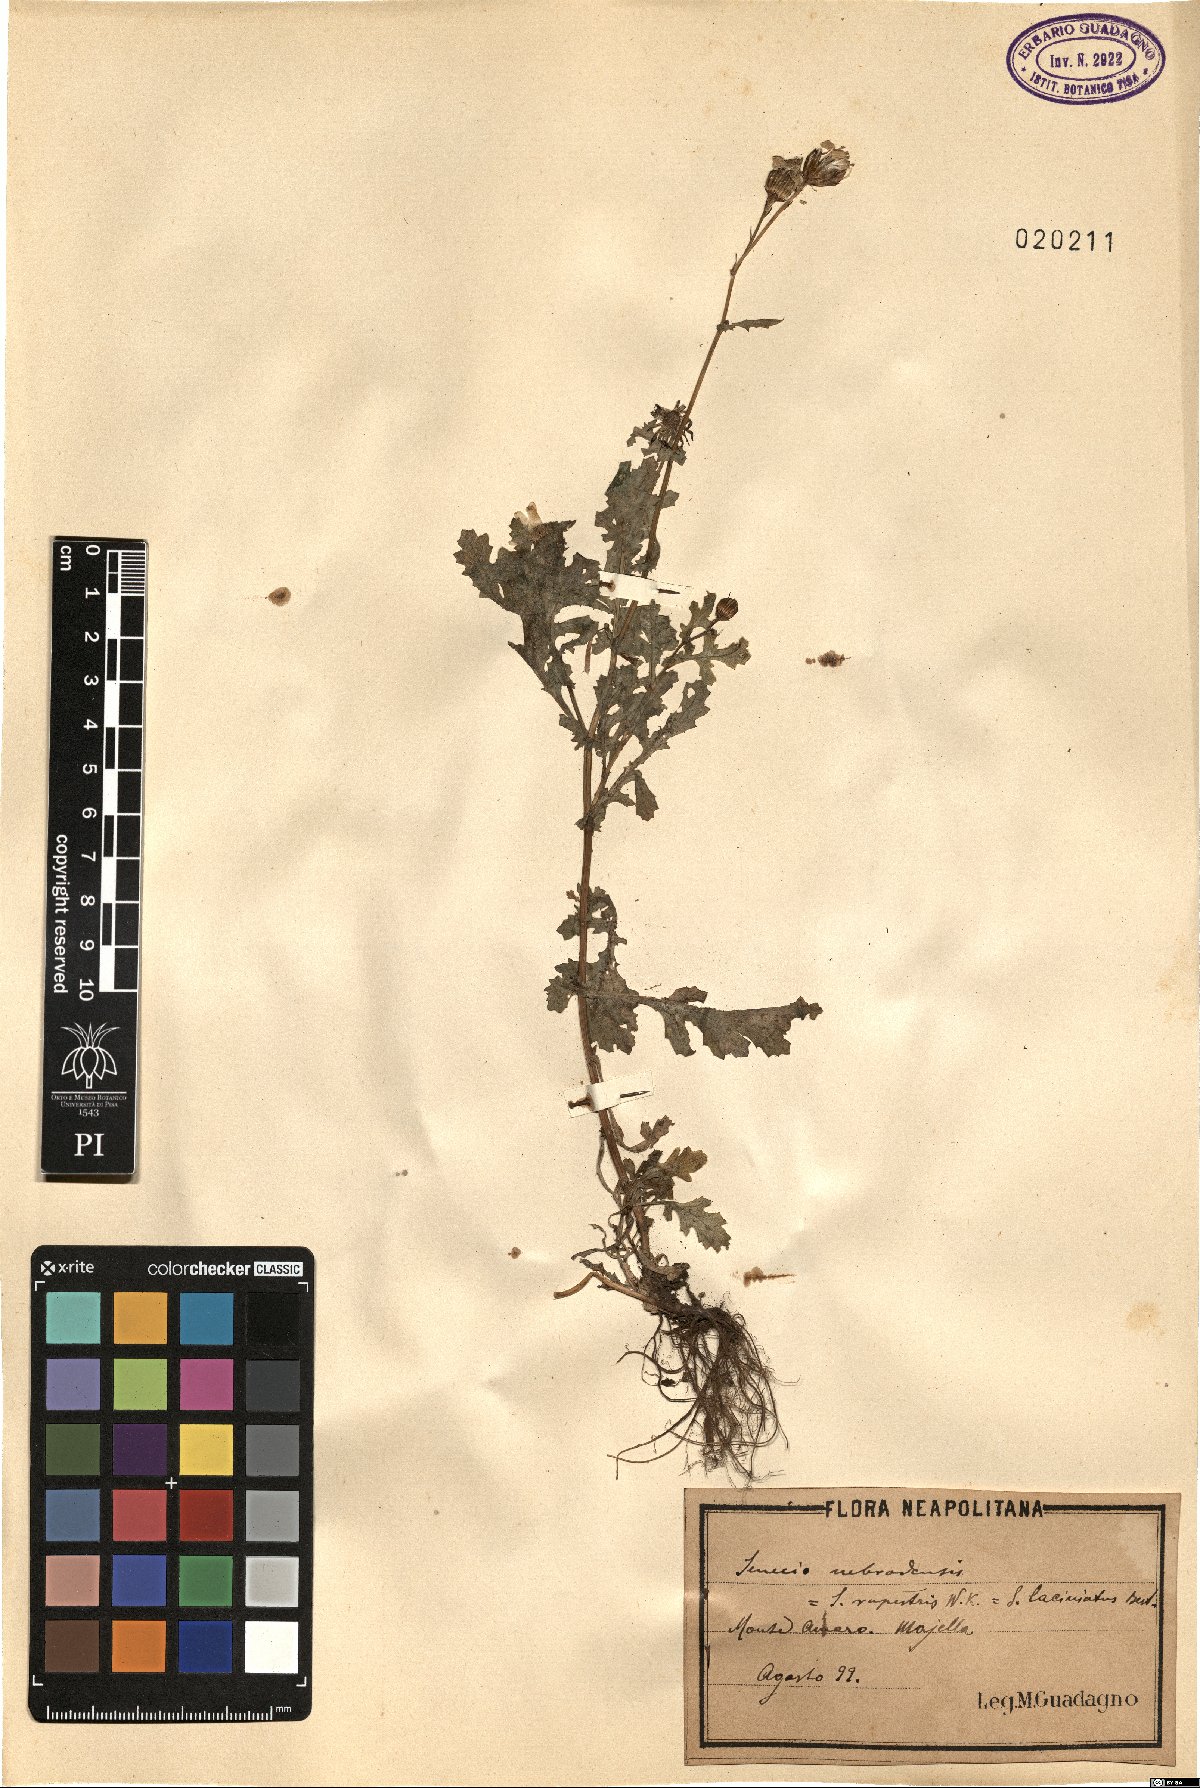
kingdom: Plantae
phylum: Tracheophyta
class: Magnoliopsida
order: Asterales
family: Asteraceae
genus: Senecio
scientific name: Senecio duriaei
